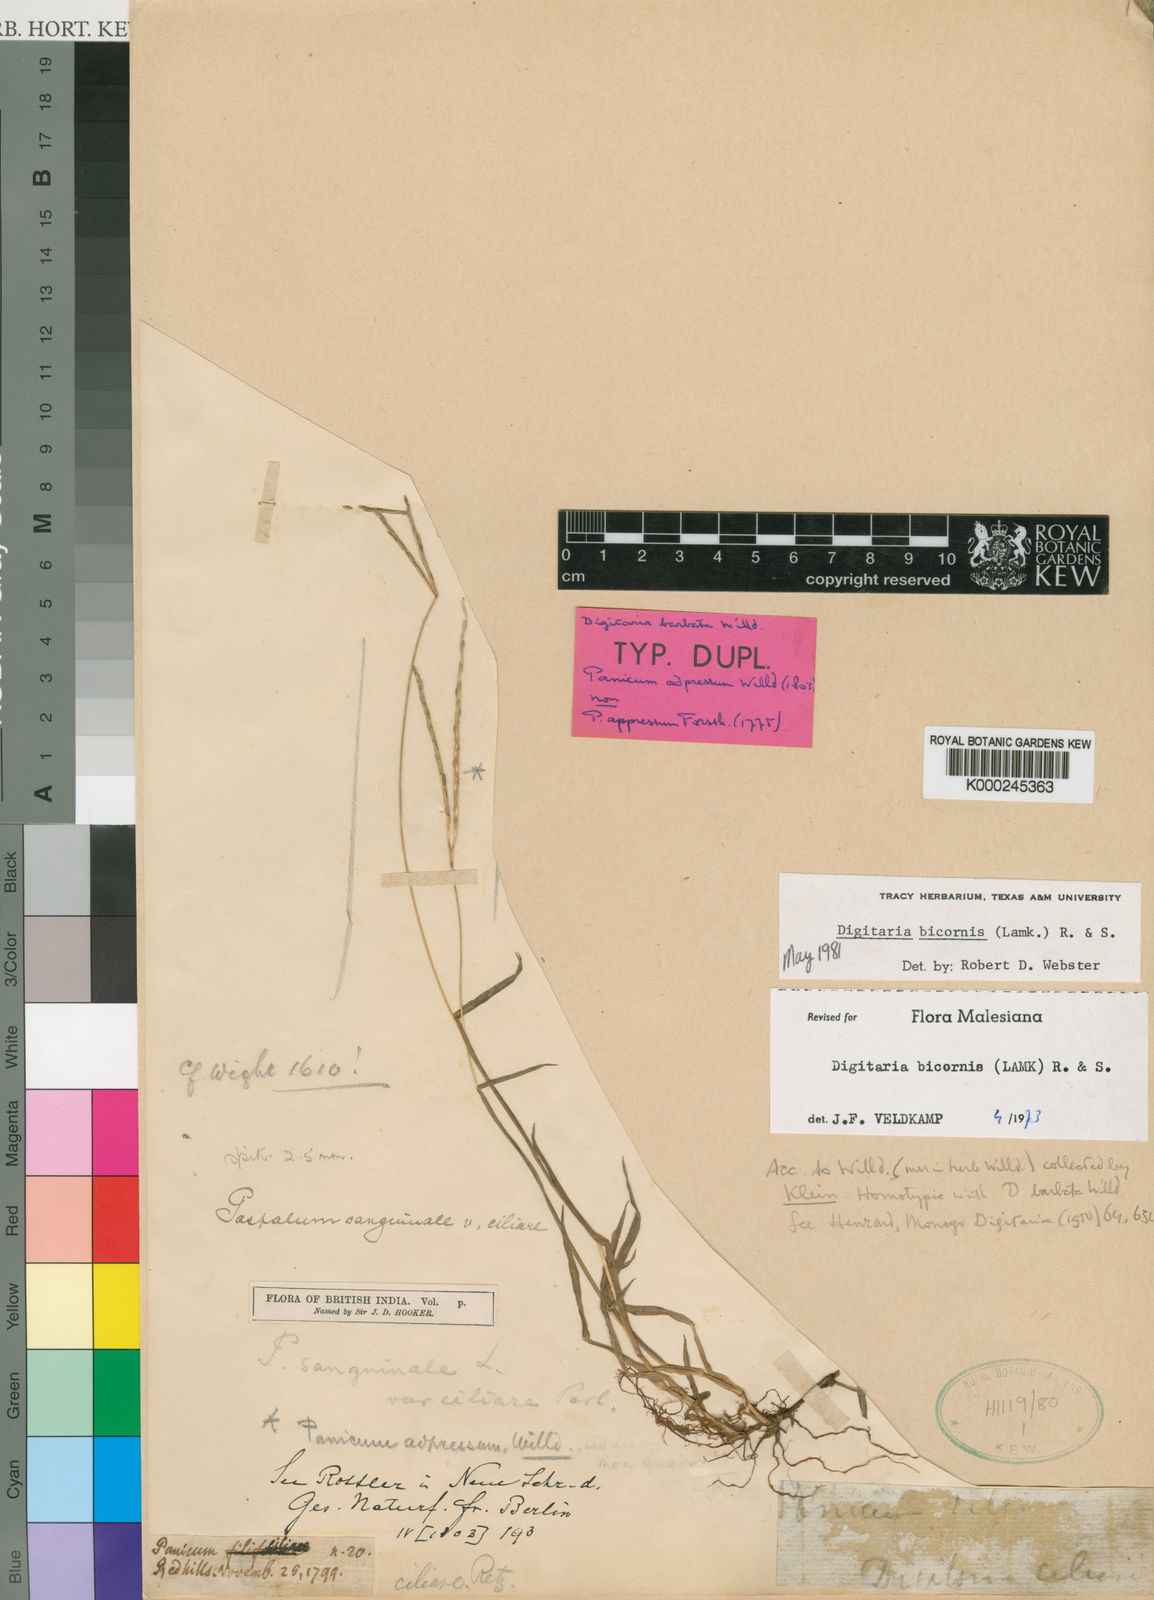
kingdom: Plantae
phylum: Tracheophyta
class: Liliopsida
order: Poales
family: Poaceae
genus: Digitaria
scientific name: Digitaria bicornis
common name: Asian crabgrass
